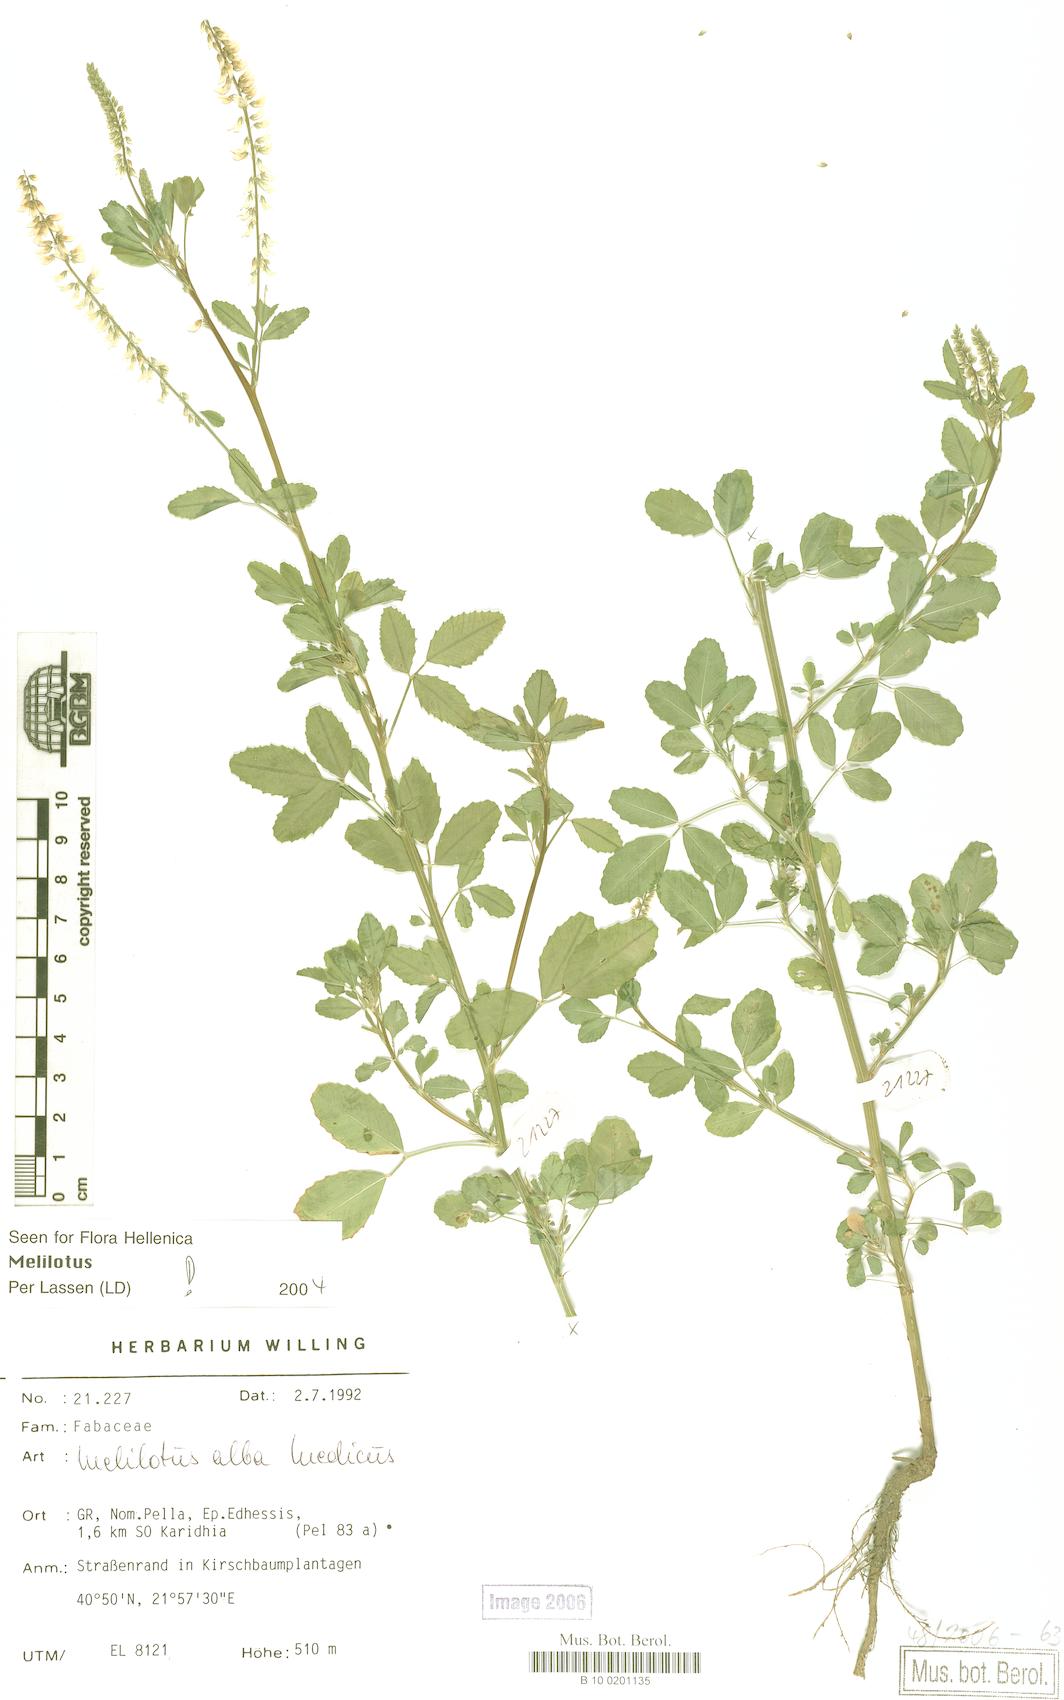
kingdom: Plantae
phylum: Tracheophyta
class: Magnoliopsida
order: Fabales
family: Fabaceae
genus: Melilotus
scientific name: Melilotus albus
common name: White melilot
